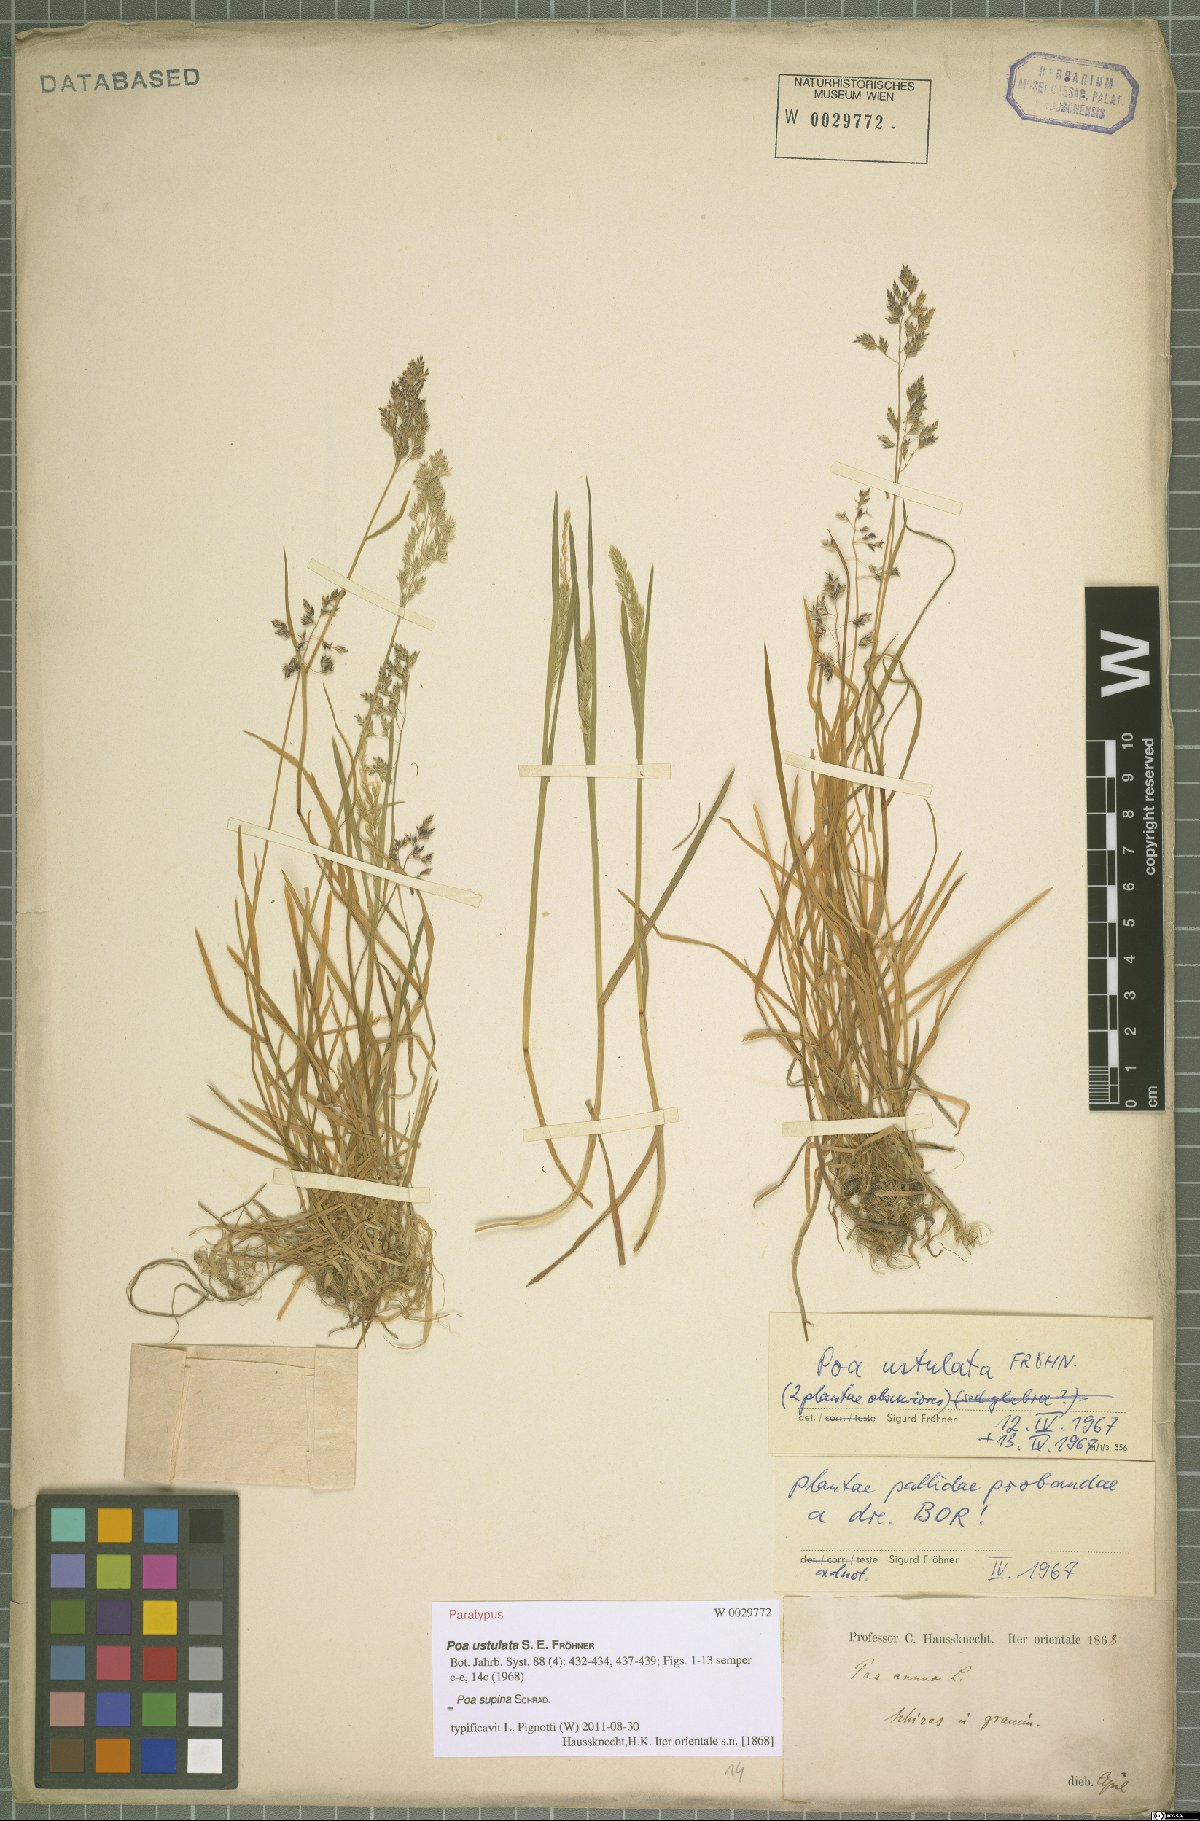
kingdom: Plantae
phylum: Tracheophyta
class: Liliopsida
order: Poales
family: Poaceae
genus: Poa
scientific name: Poa supina
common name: Supina bluegrass
